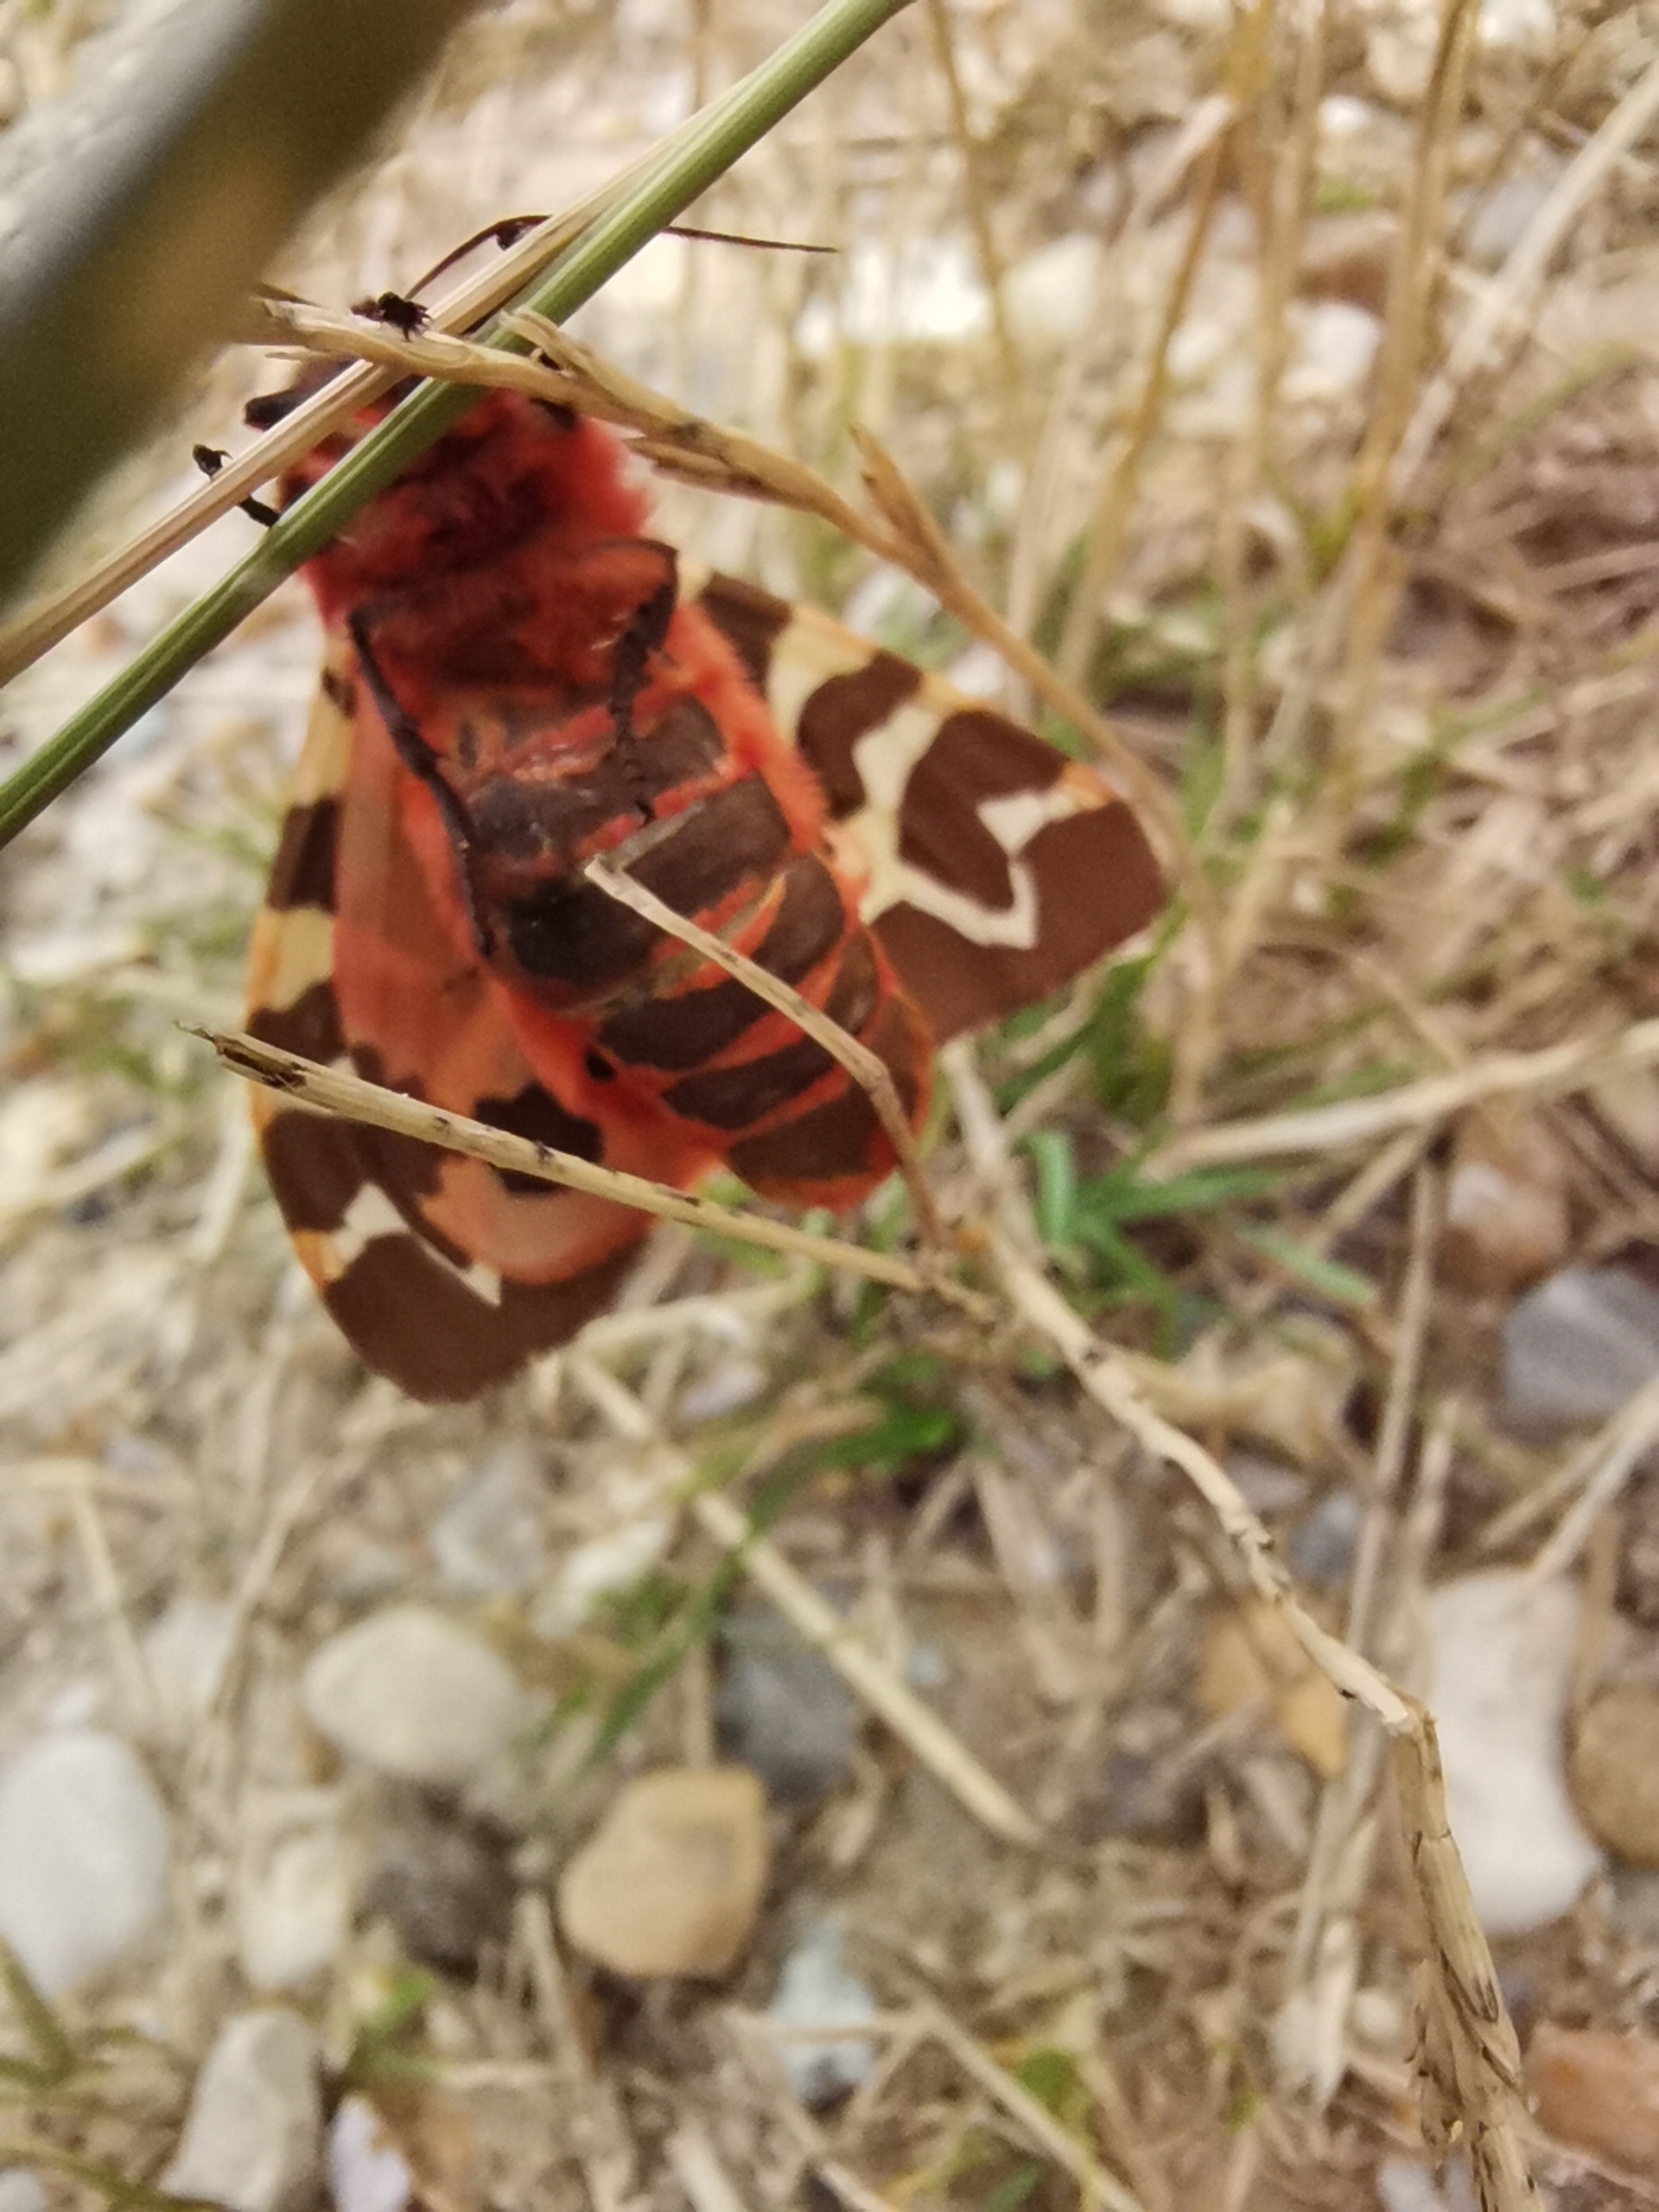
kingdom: Animalia
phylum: Arthropoda
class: Insecta
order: Lepidoptera
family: Erebidae
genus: Arctia
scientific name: Arctia caja
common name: Brun bjørn
